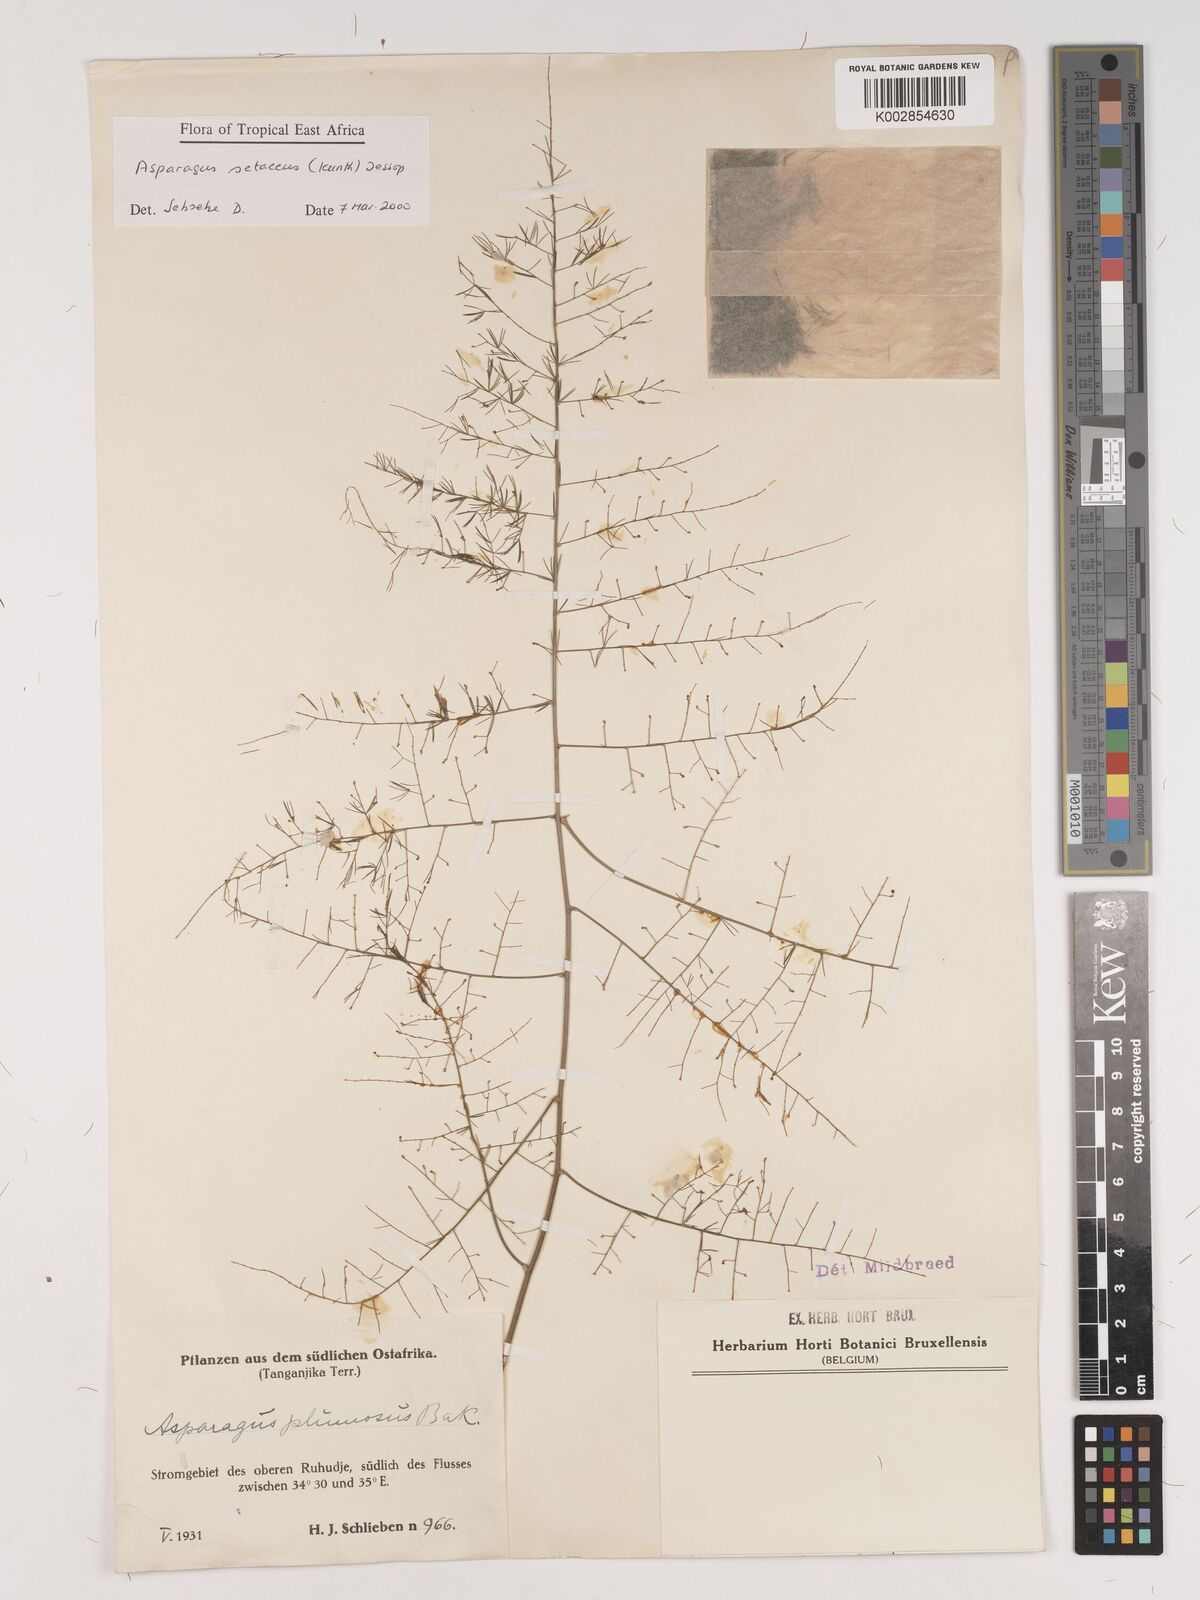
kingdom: Plantae
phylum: Tracheophyta
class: Liliopsida
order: Asparagales
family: Asparagaceae
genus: Asparagus
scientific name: Asparagus setaceus
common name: Common asparagus fern
